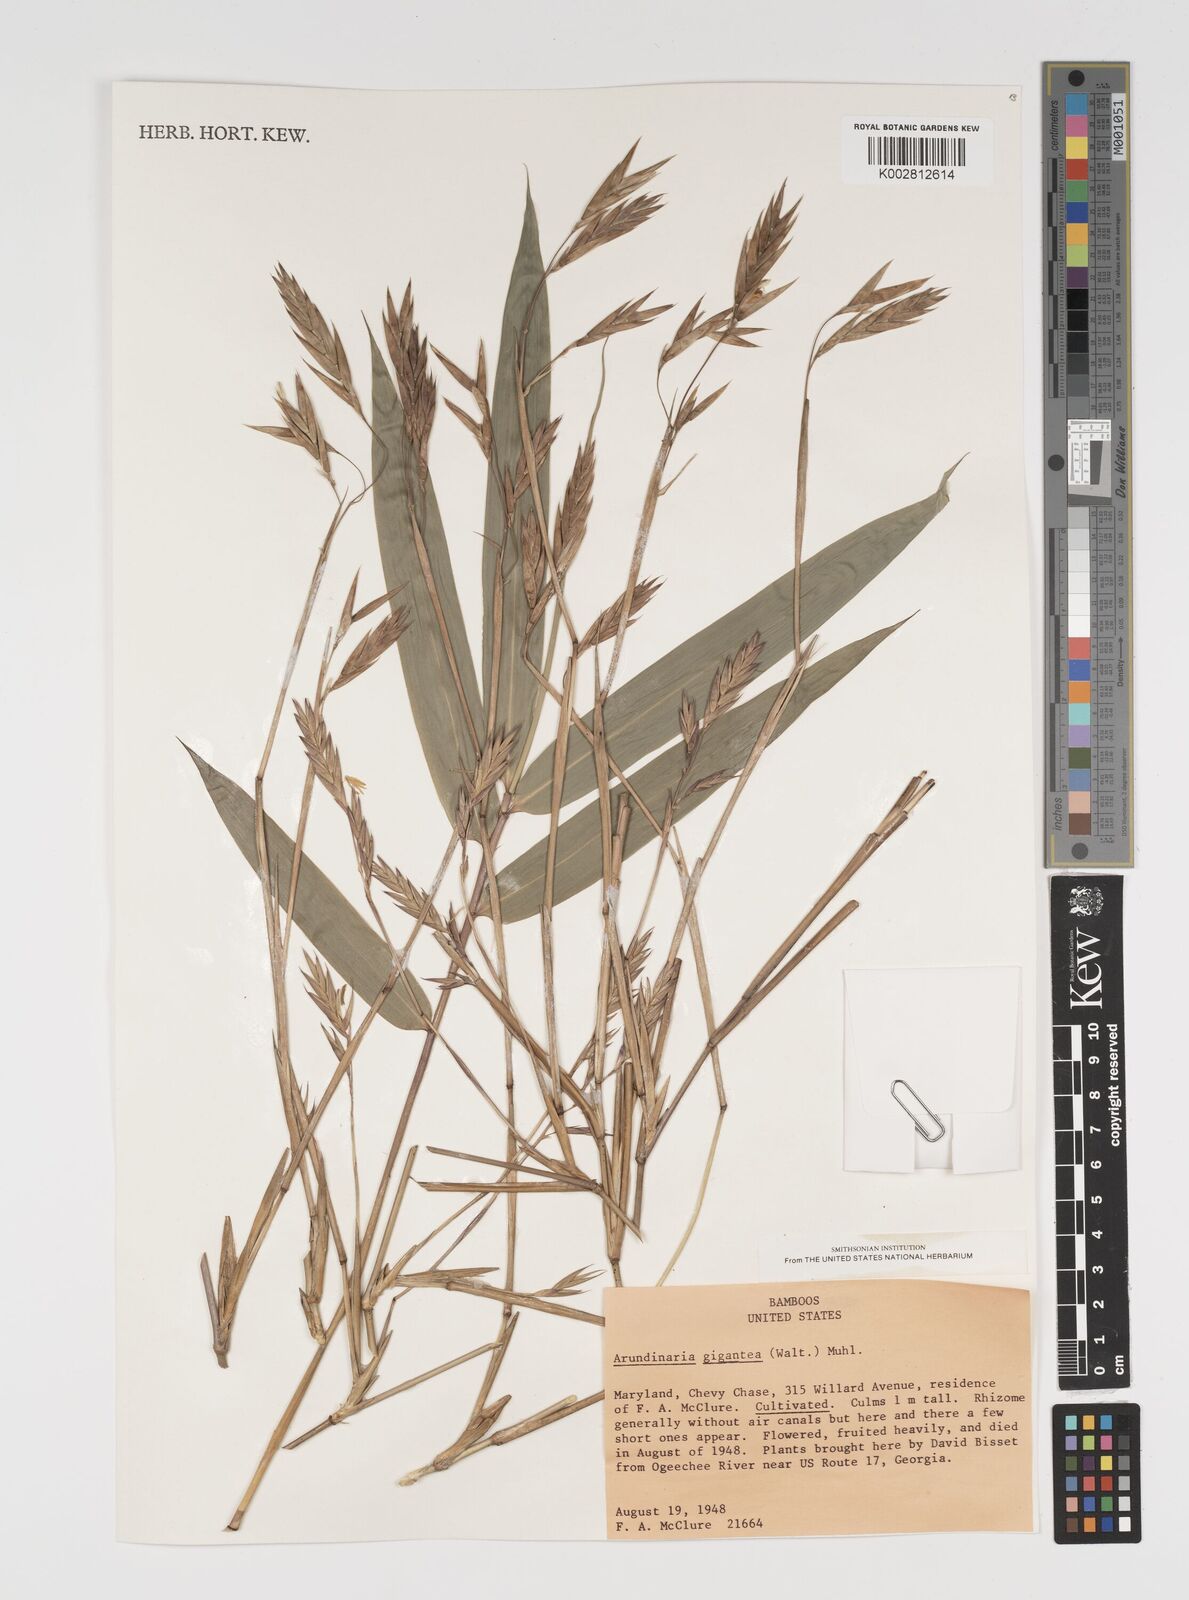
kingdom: Plantae
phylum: Tracheophyta
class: Liliopsida
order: Poales
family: Poaceae
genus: Arundinaria
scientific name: Arundinaria
